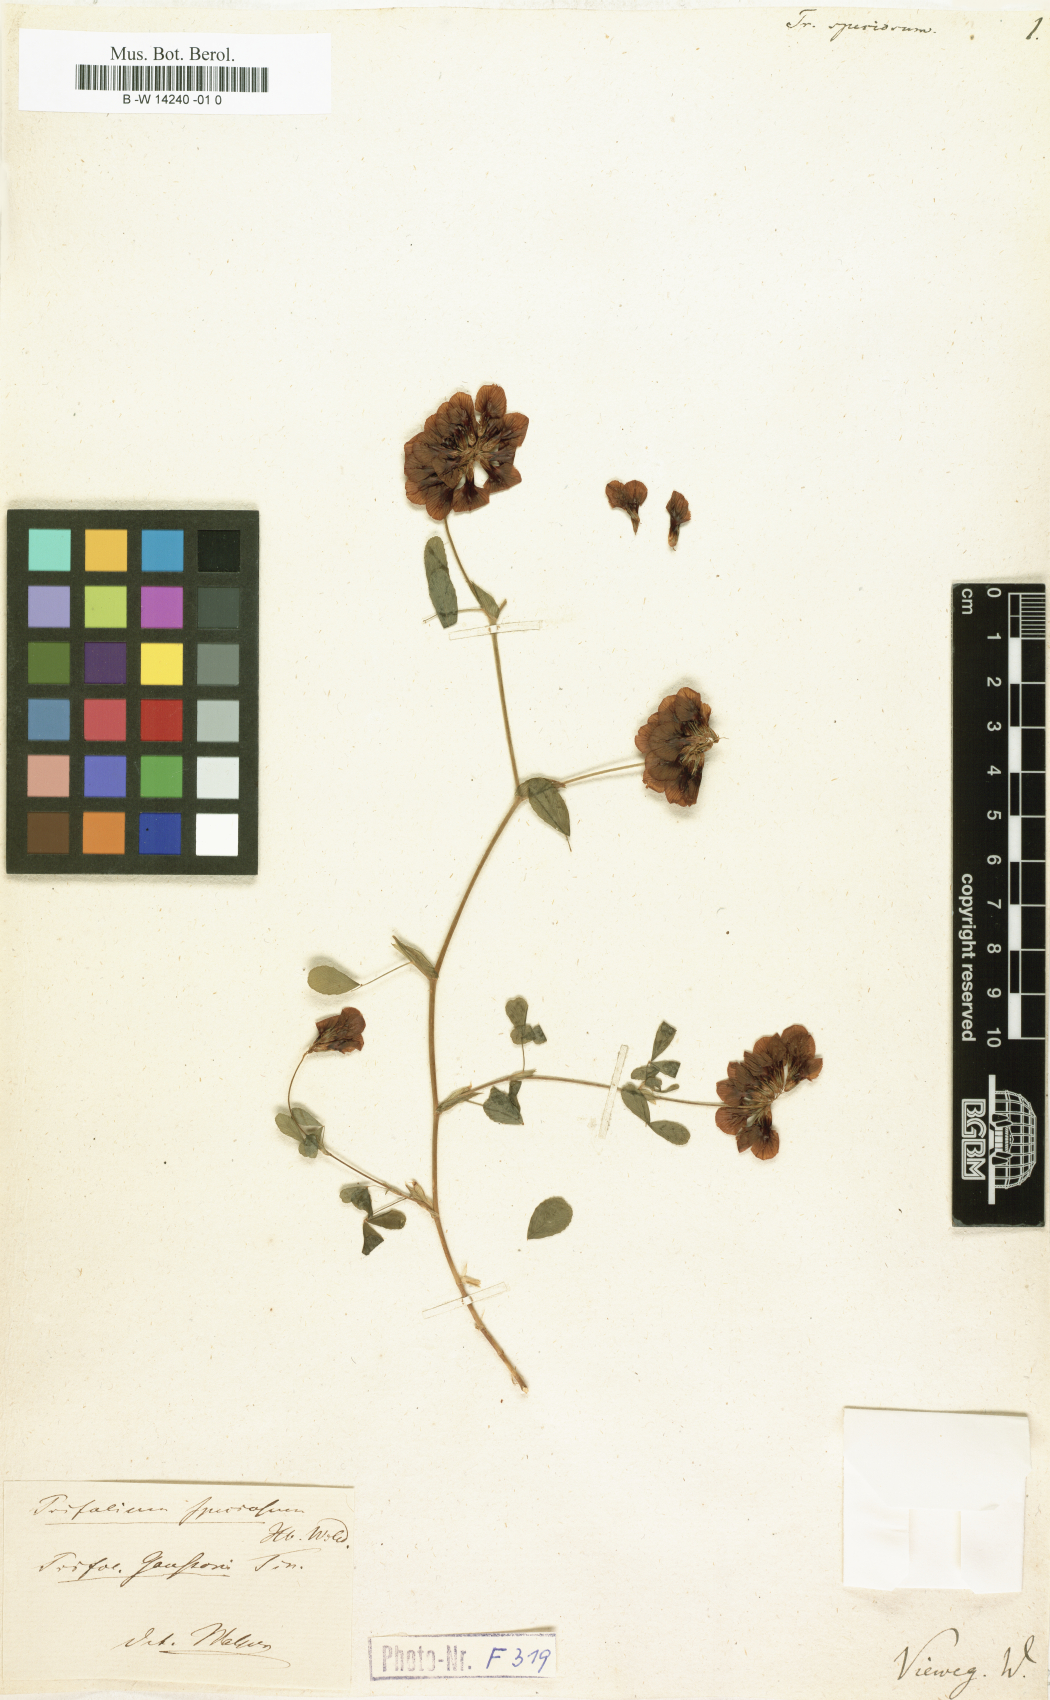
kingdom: Plantae
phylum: Tracheophyta
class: Magnoliopsida
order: Fabales
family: Fabaceae
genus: Trifolium
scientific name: Trifolium
